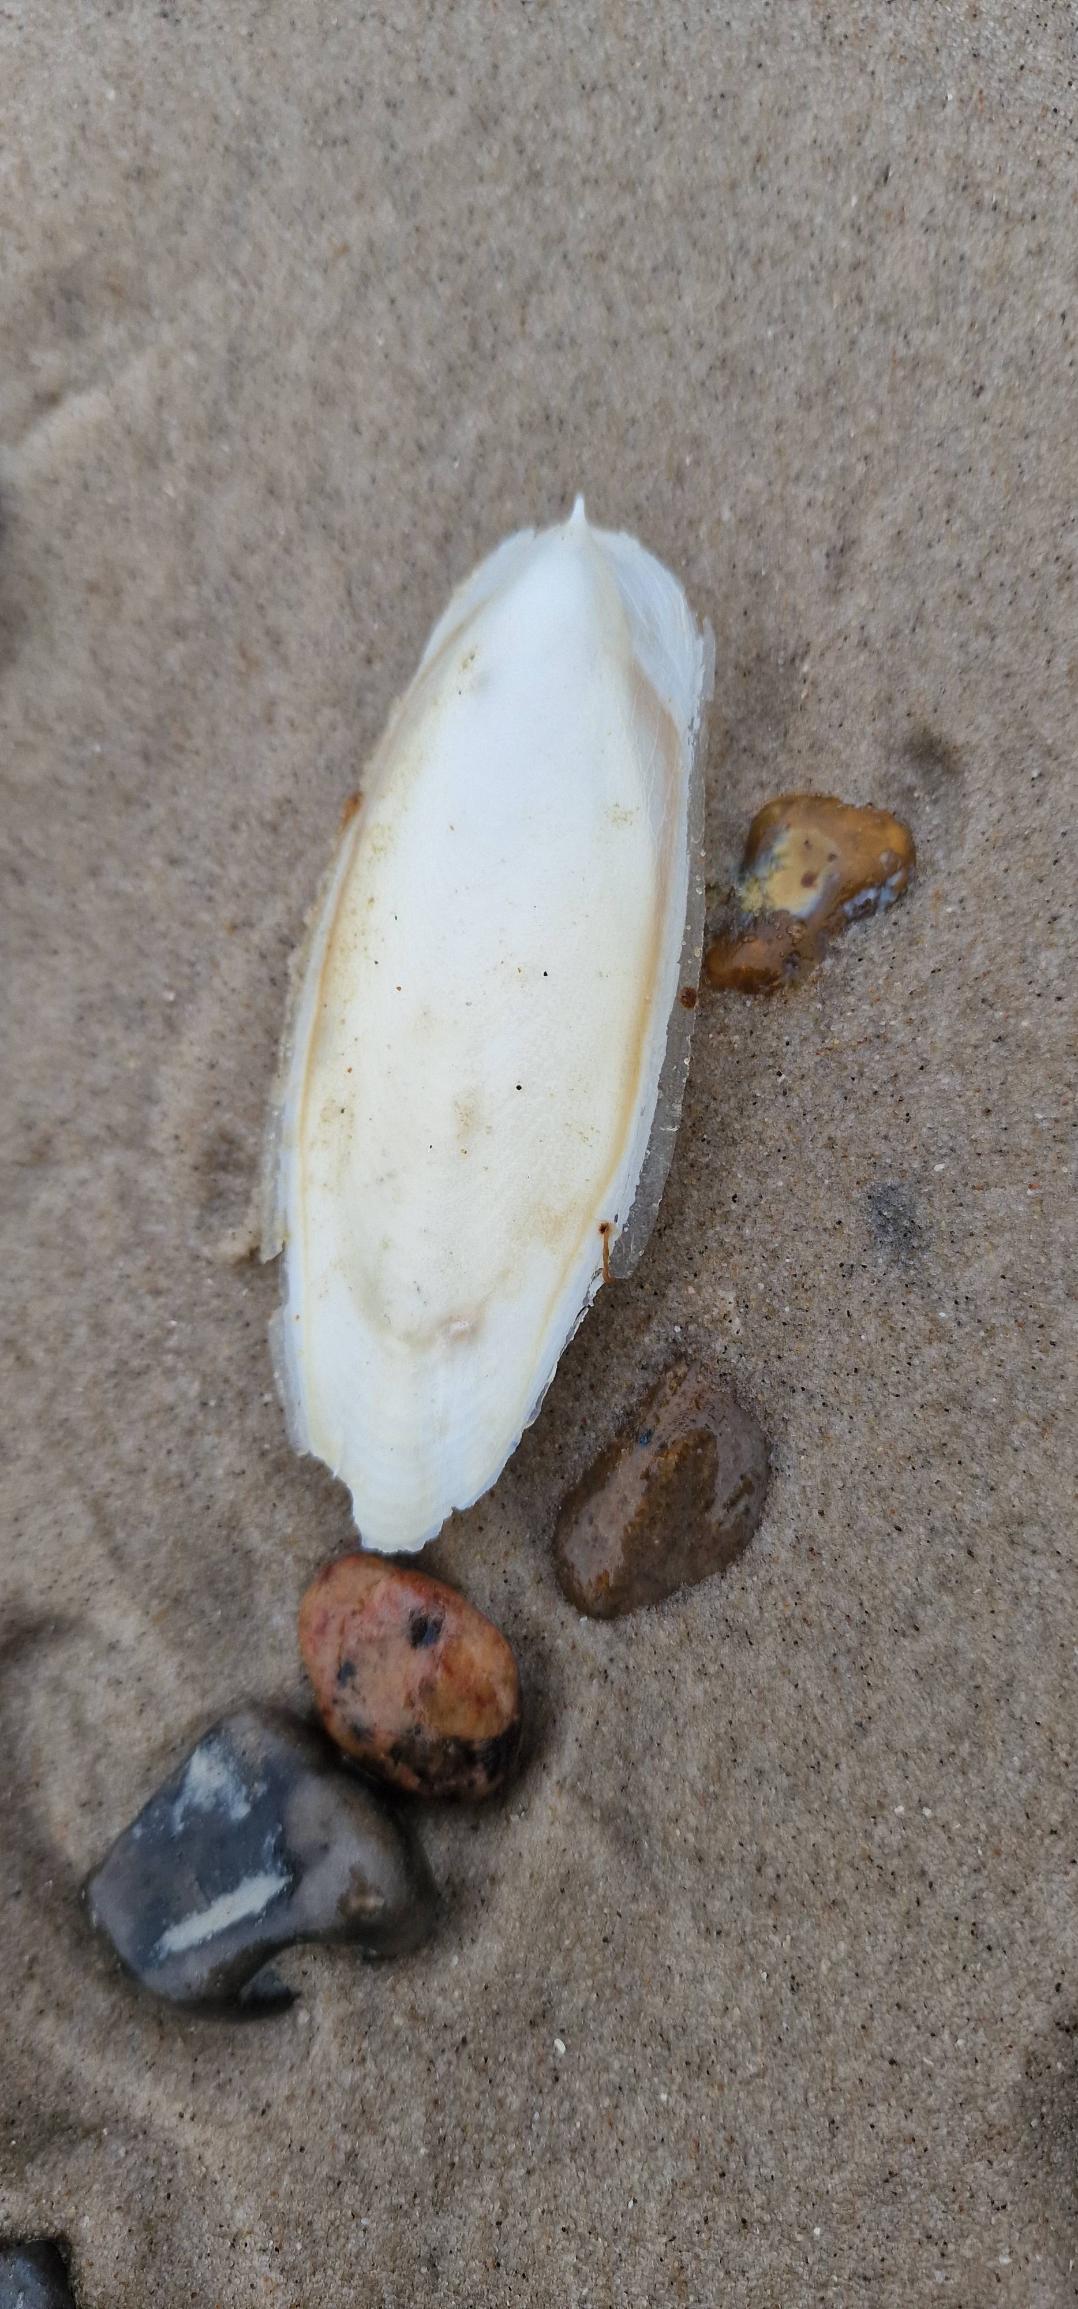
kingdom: Animalia
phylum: Mollusca
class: Cephalopoda
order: Sepiida
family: Sepiidae
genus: Sepia
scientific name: Sepia officinalis
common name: Sepiablæksprutte
